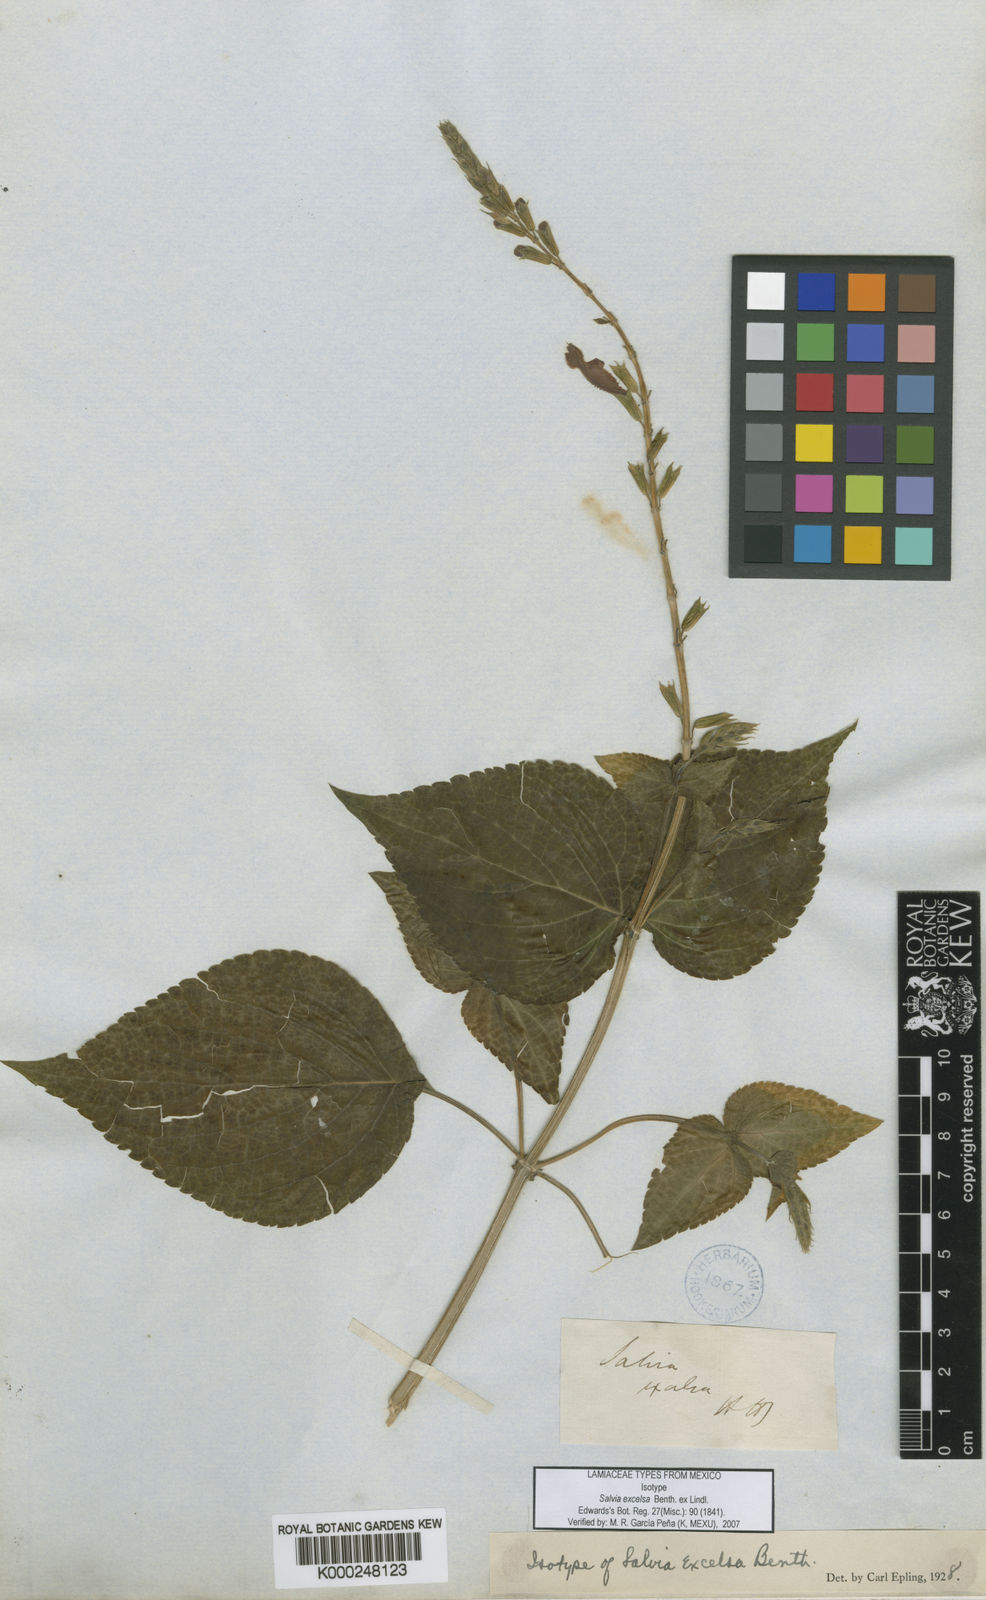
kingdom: Plantae
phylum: Tracheophyta
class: Magnoliopsida
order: Lamiales
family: Lamiaceae
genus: Salvia
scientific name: Salvia tubifera
